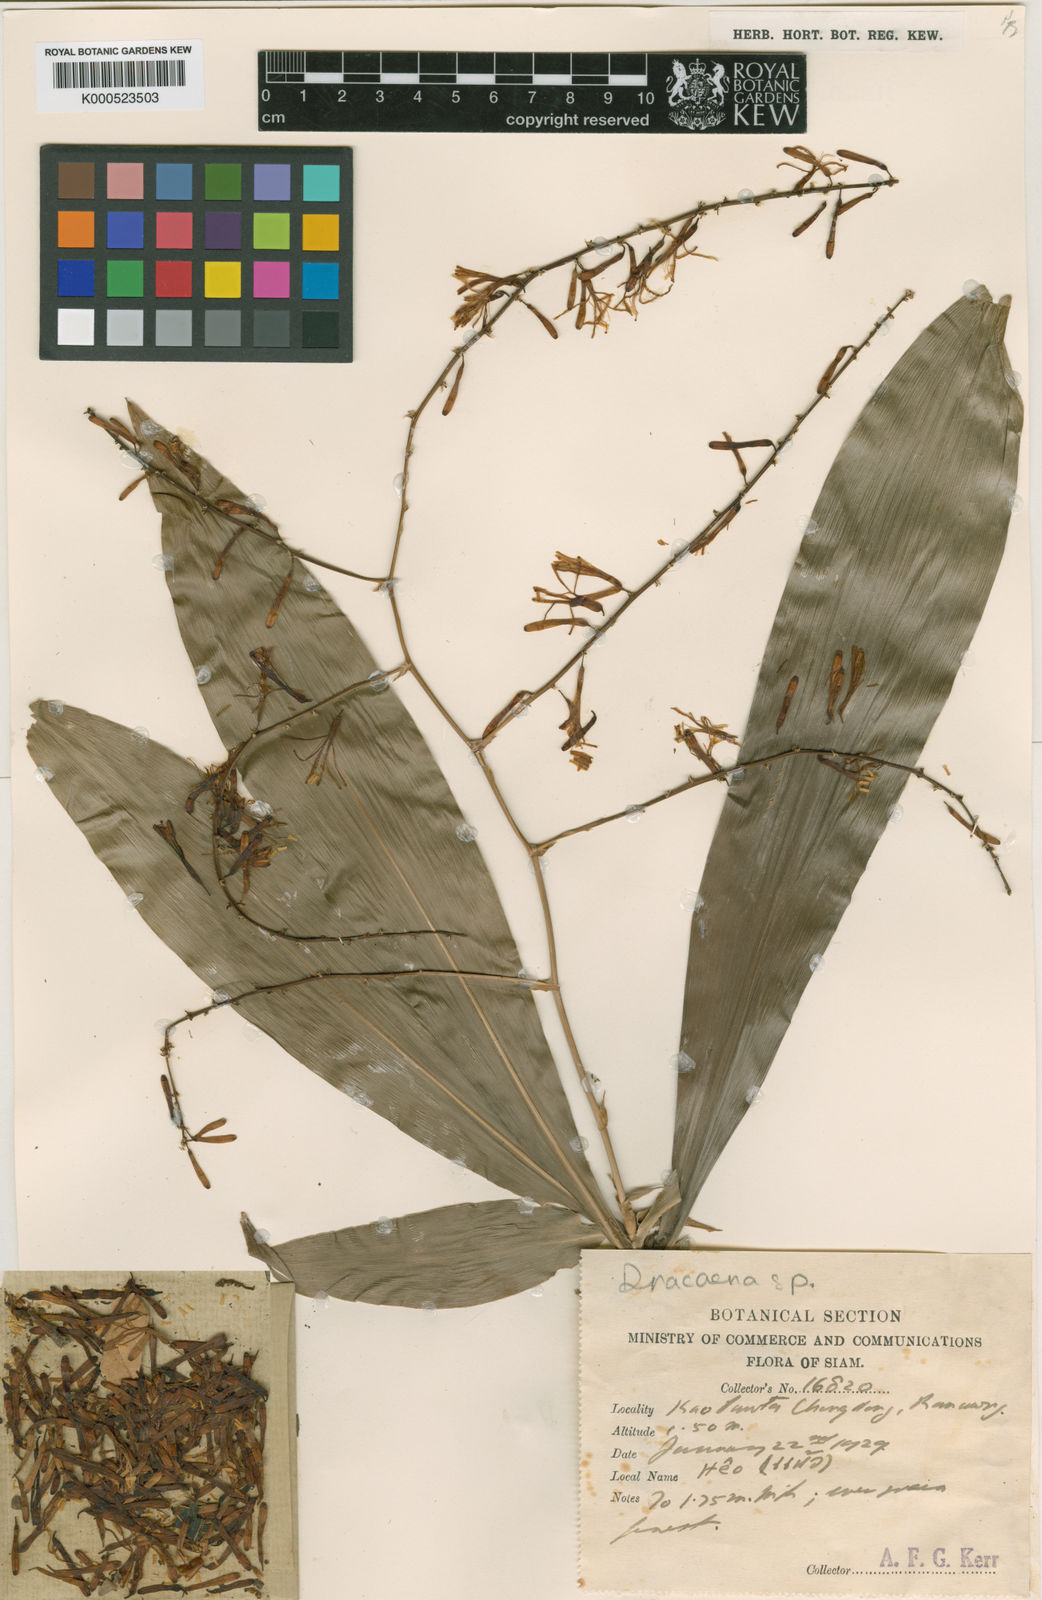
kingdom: Plantae
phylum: Tracheophyta
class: Liliopsida
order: Asparagales
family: Asparagaceae
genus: Dracaena
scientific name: Dracaena
